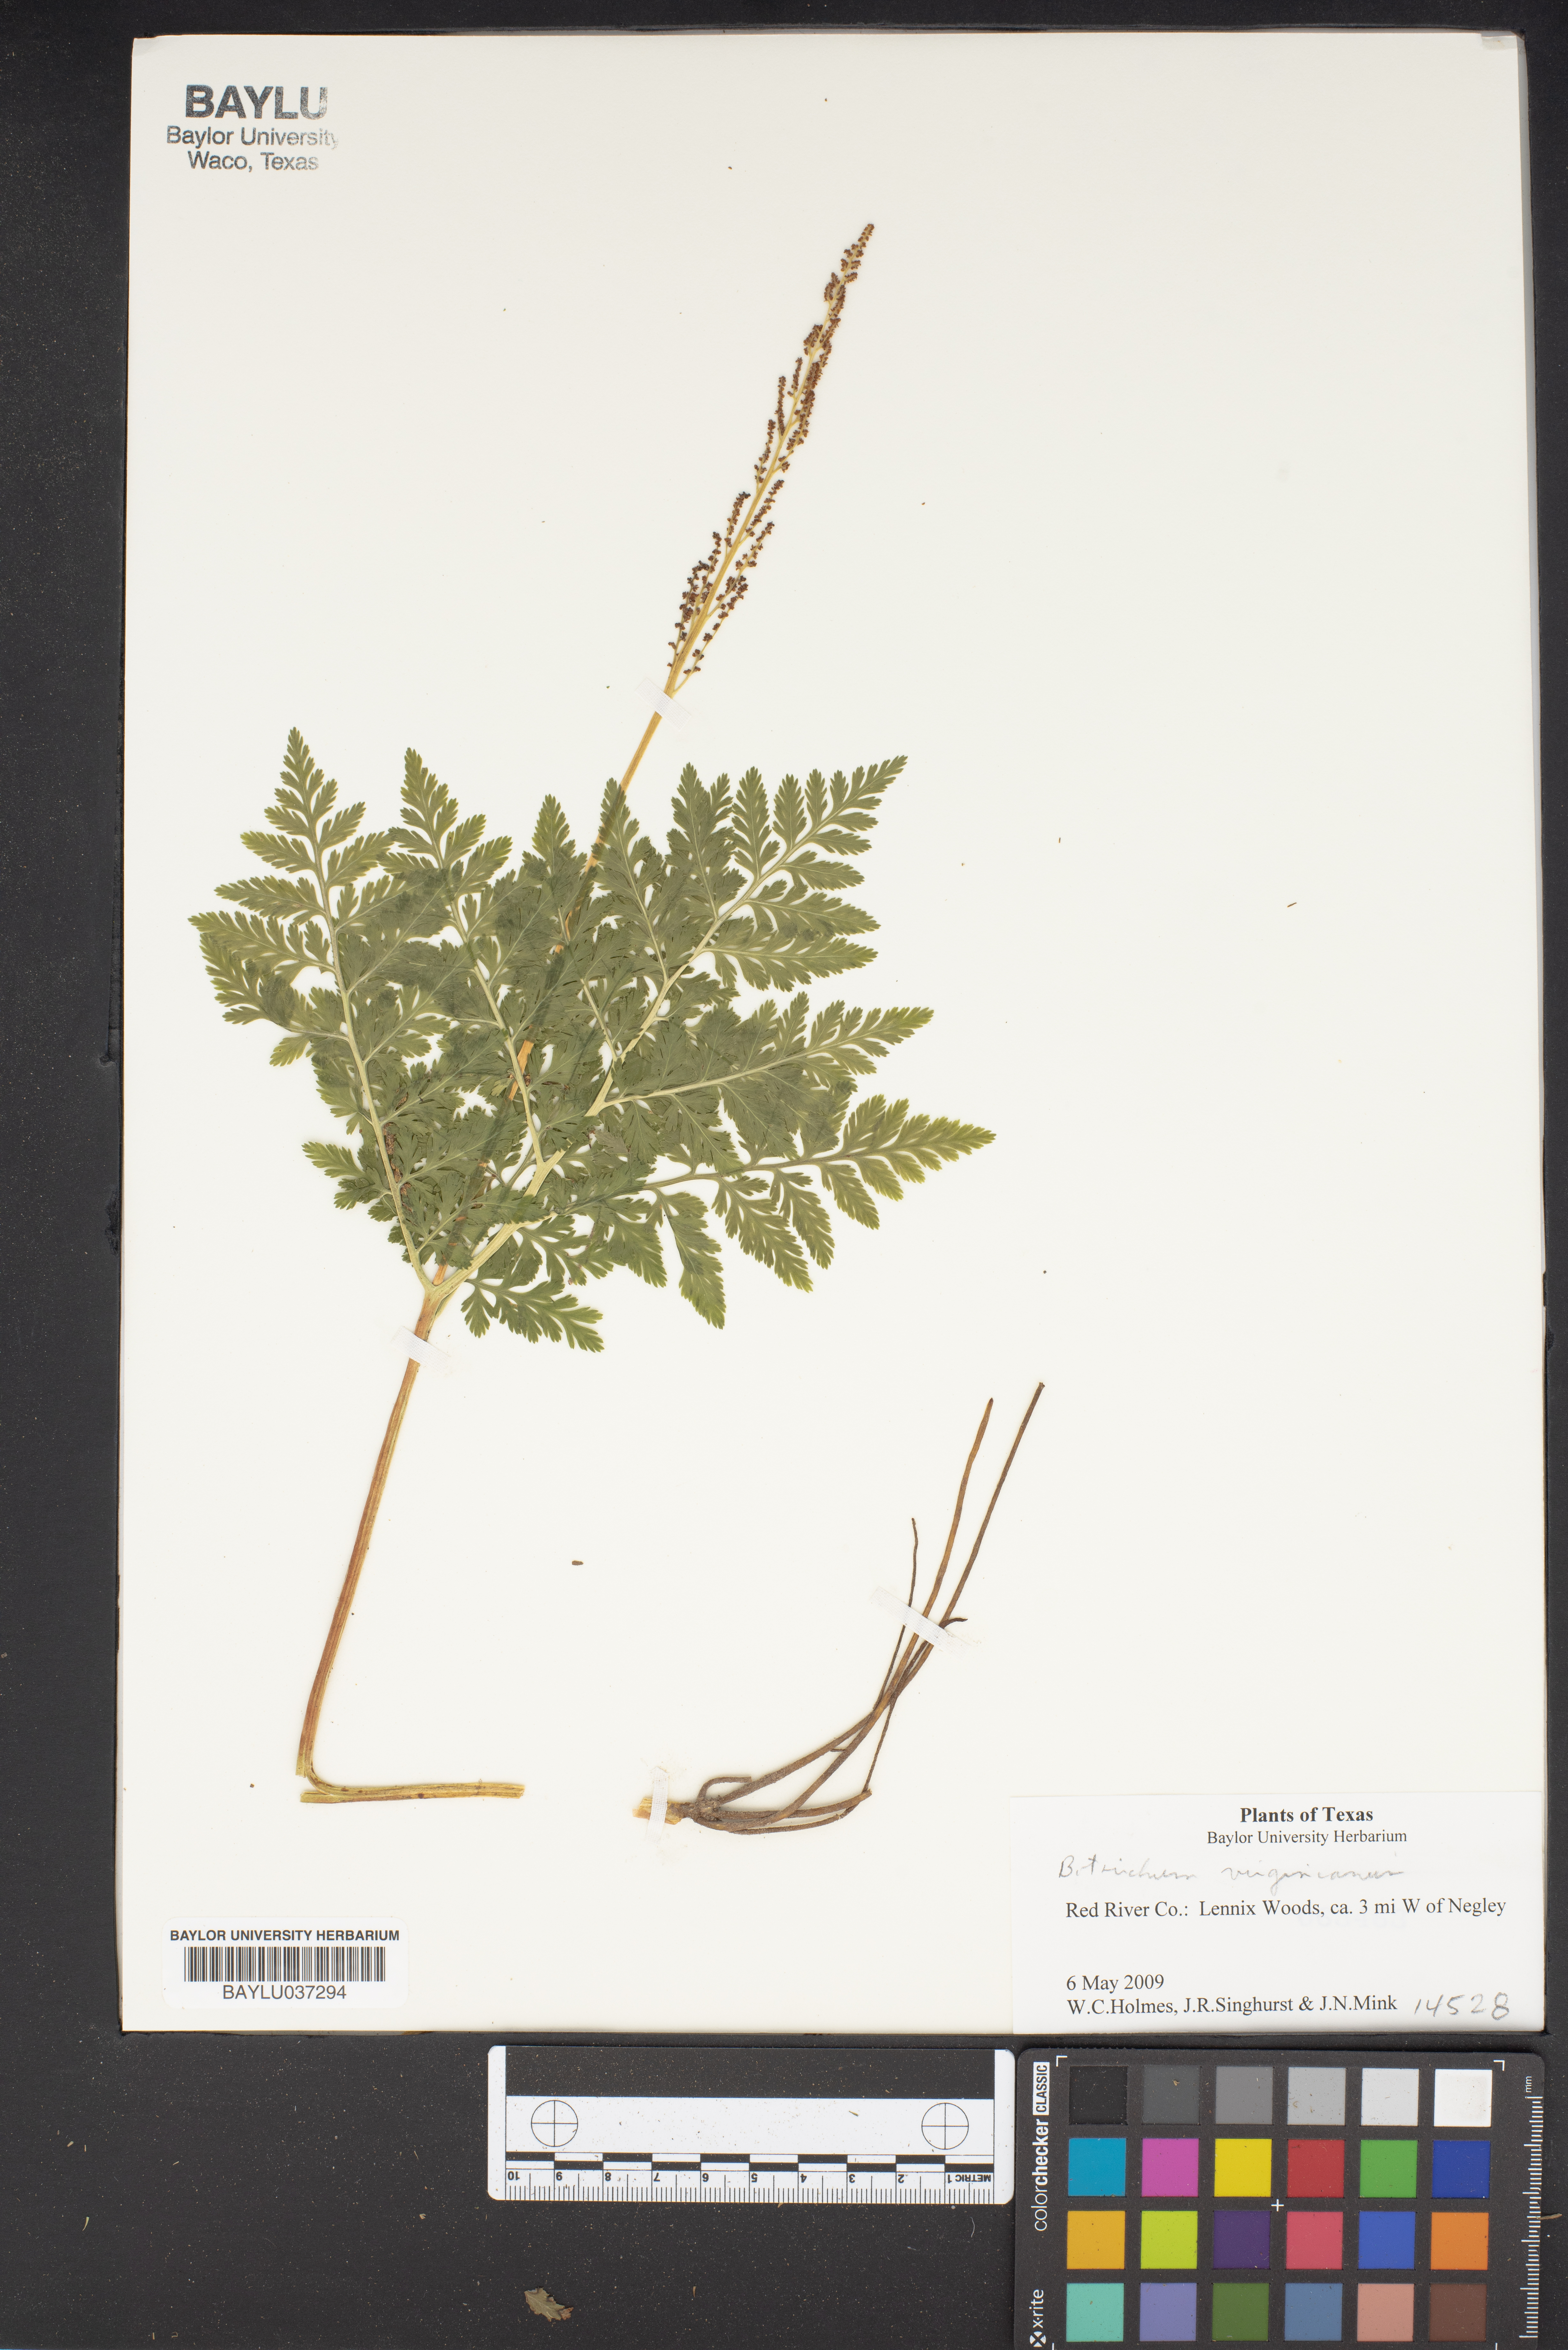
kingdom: Plantae
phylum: Tracheophyta
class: Polypodiopsida
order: Ophioglossales
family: Ophioglossaceae
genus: Botrypus
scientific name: Botrypus virginianus
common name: Common grapefern
